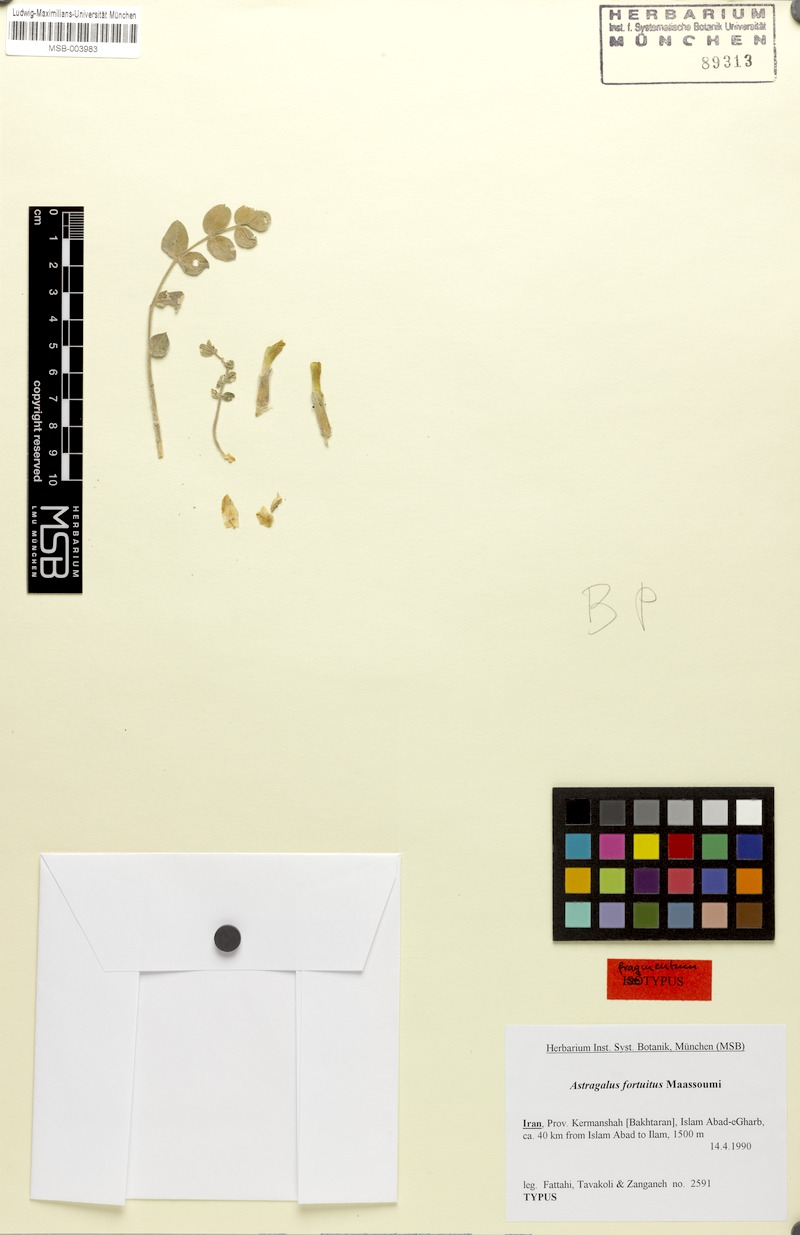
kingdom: Plantae
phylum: Tracheophyta
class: Magnoliopsida
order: Fabales
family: Fabaceae
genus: Astragalus
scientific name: Astragalus fortuitus
